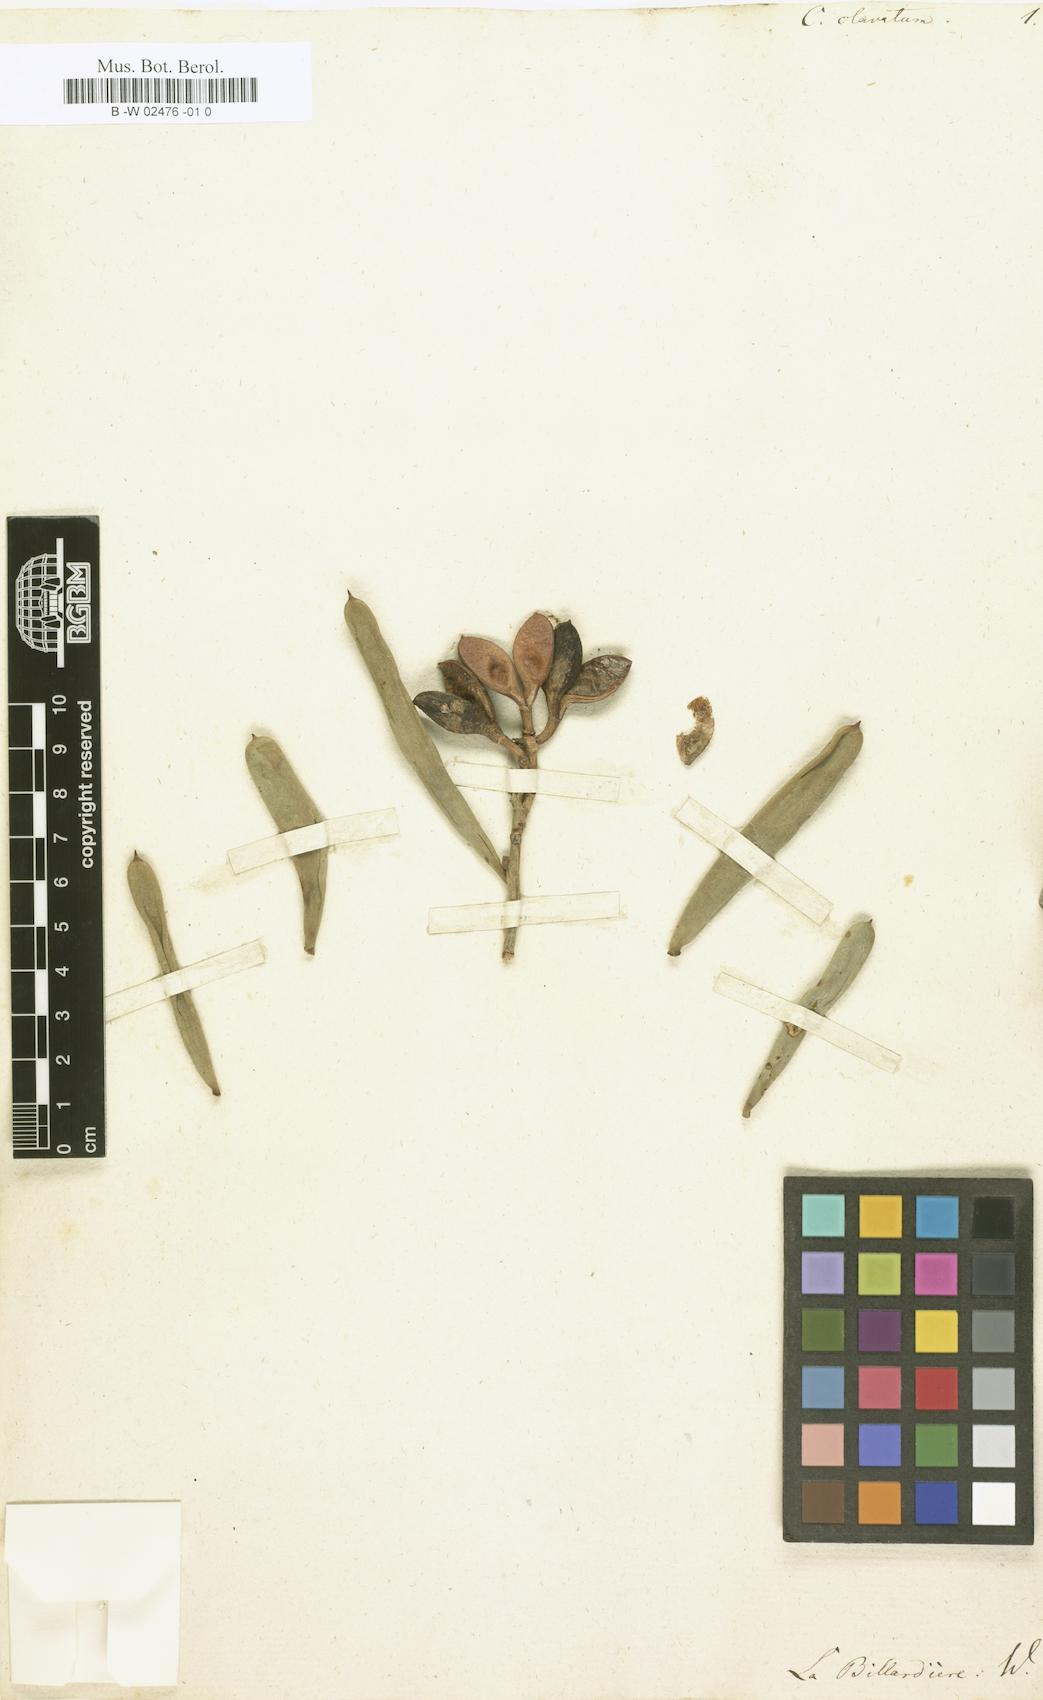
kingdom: Plantae
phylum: Tracheophyta
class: Magnoliopsida
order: Proteales
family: Proteaceae
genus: Hakea
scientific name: Hakea clavata
